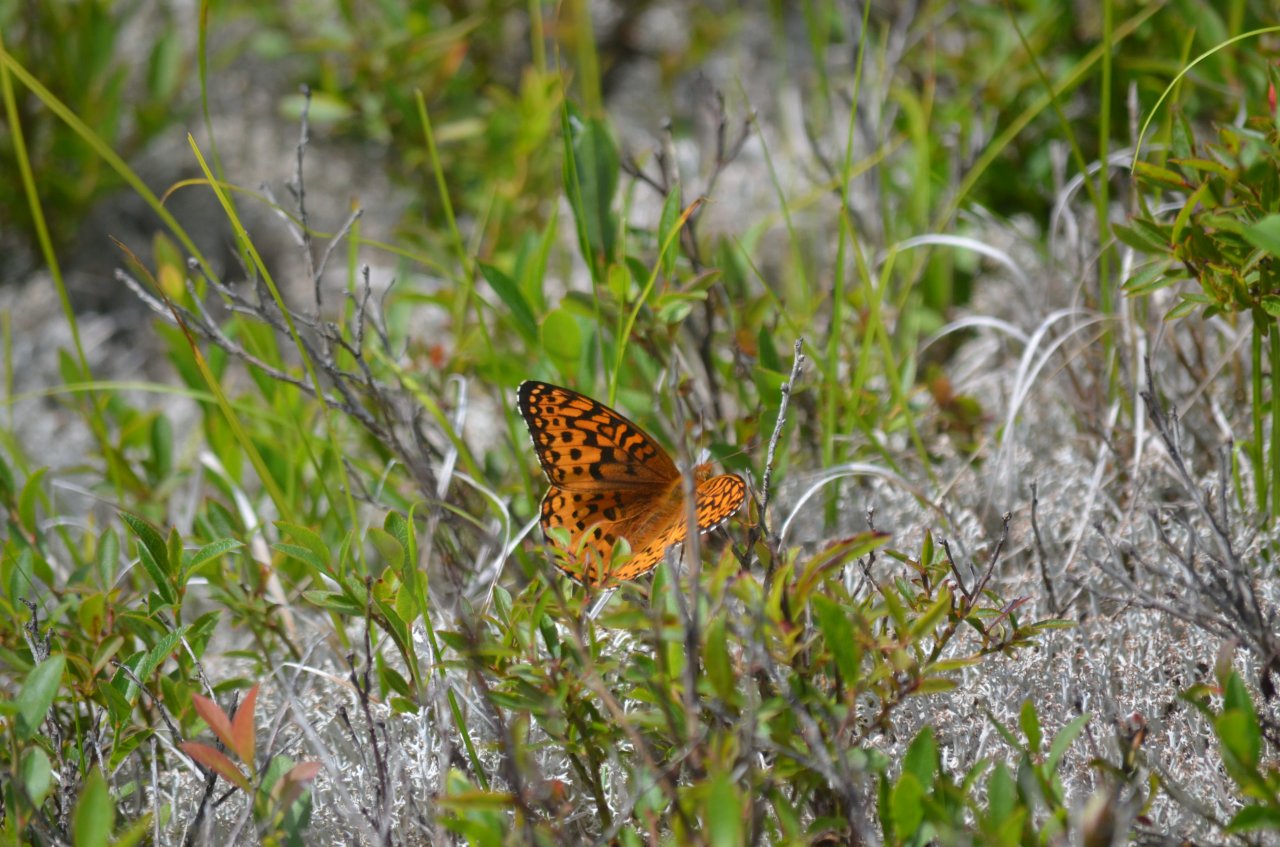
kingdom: Animalia
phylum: Arthropoda
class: Insecta
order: Lepidoptera
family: Nymphalidae
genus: Speyeria
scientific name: Speyeria aphrodite
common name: Aphrodite Fritillary
